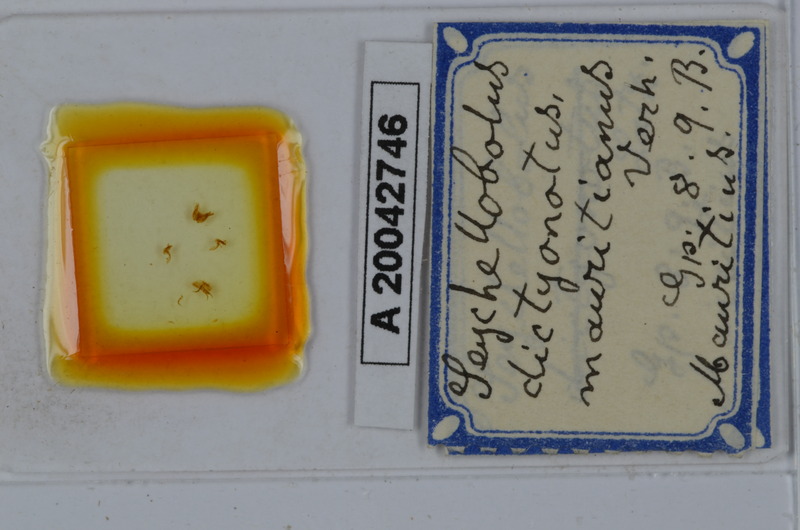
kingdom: Animalia
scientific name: Animalia
